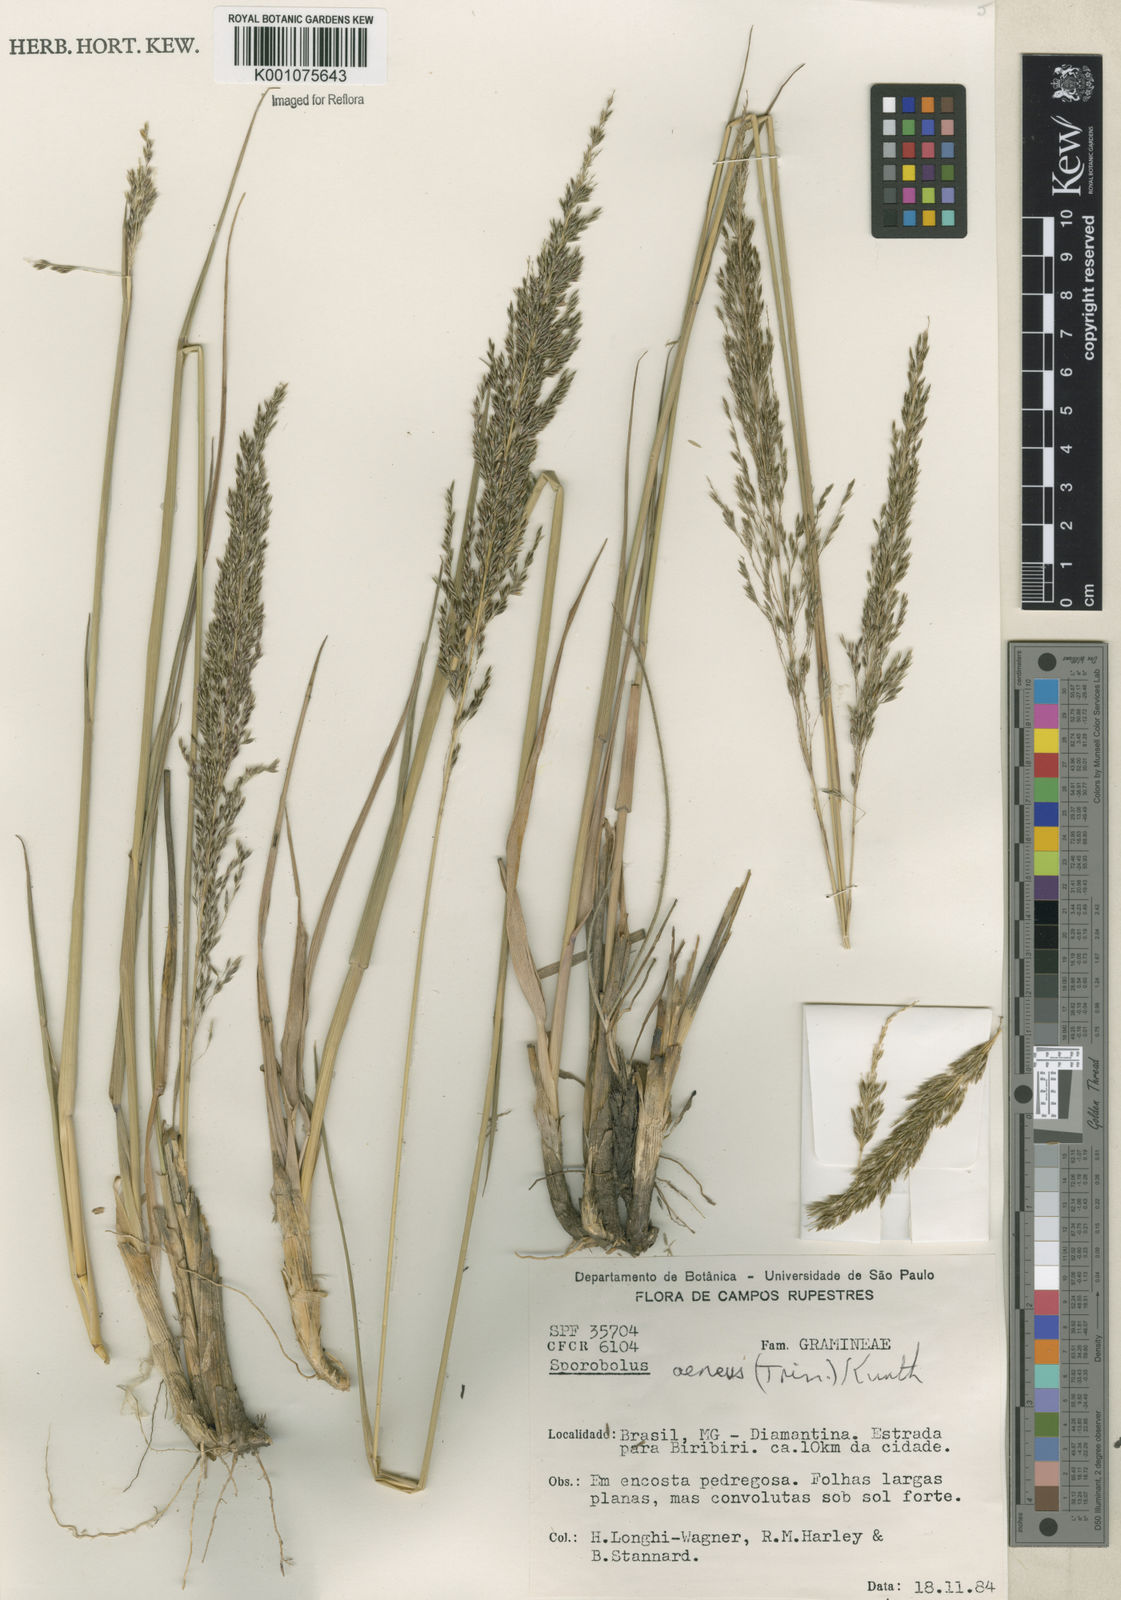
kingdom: Plantae
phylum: Tracheophyta
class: Liliopsida
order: Poales
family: Poaceae
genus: Sporobolus
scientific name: Sporobolus aeneus
